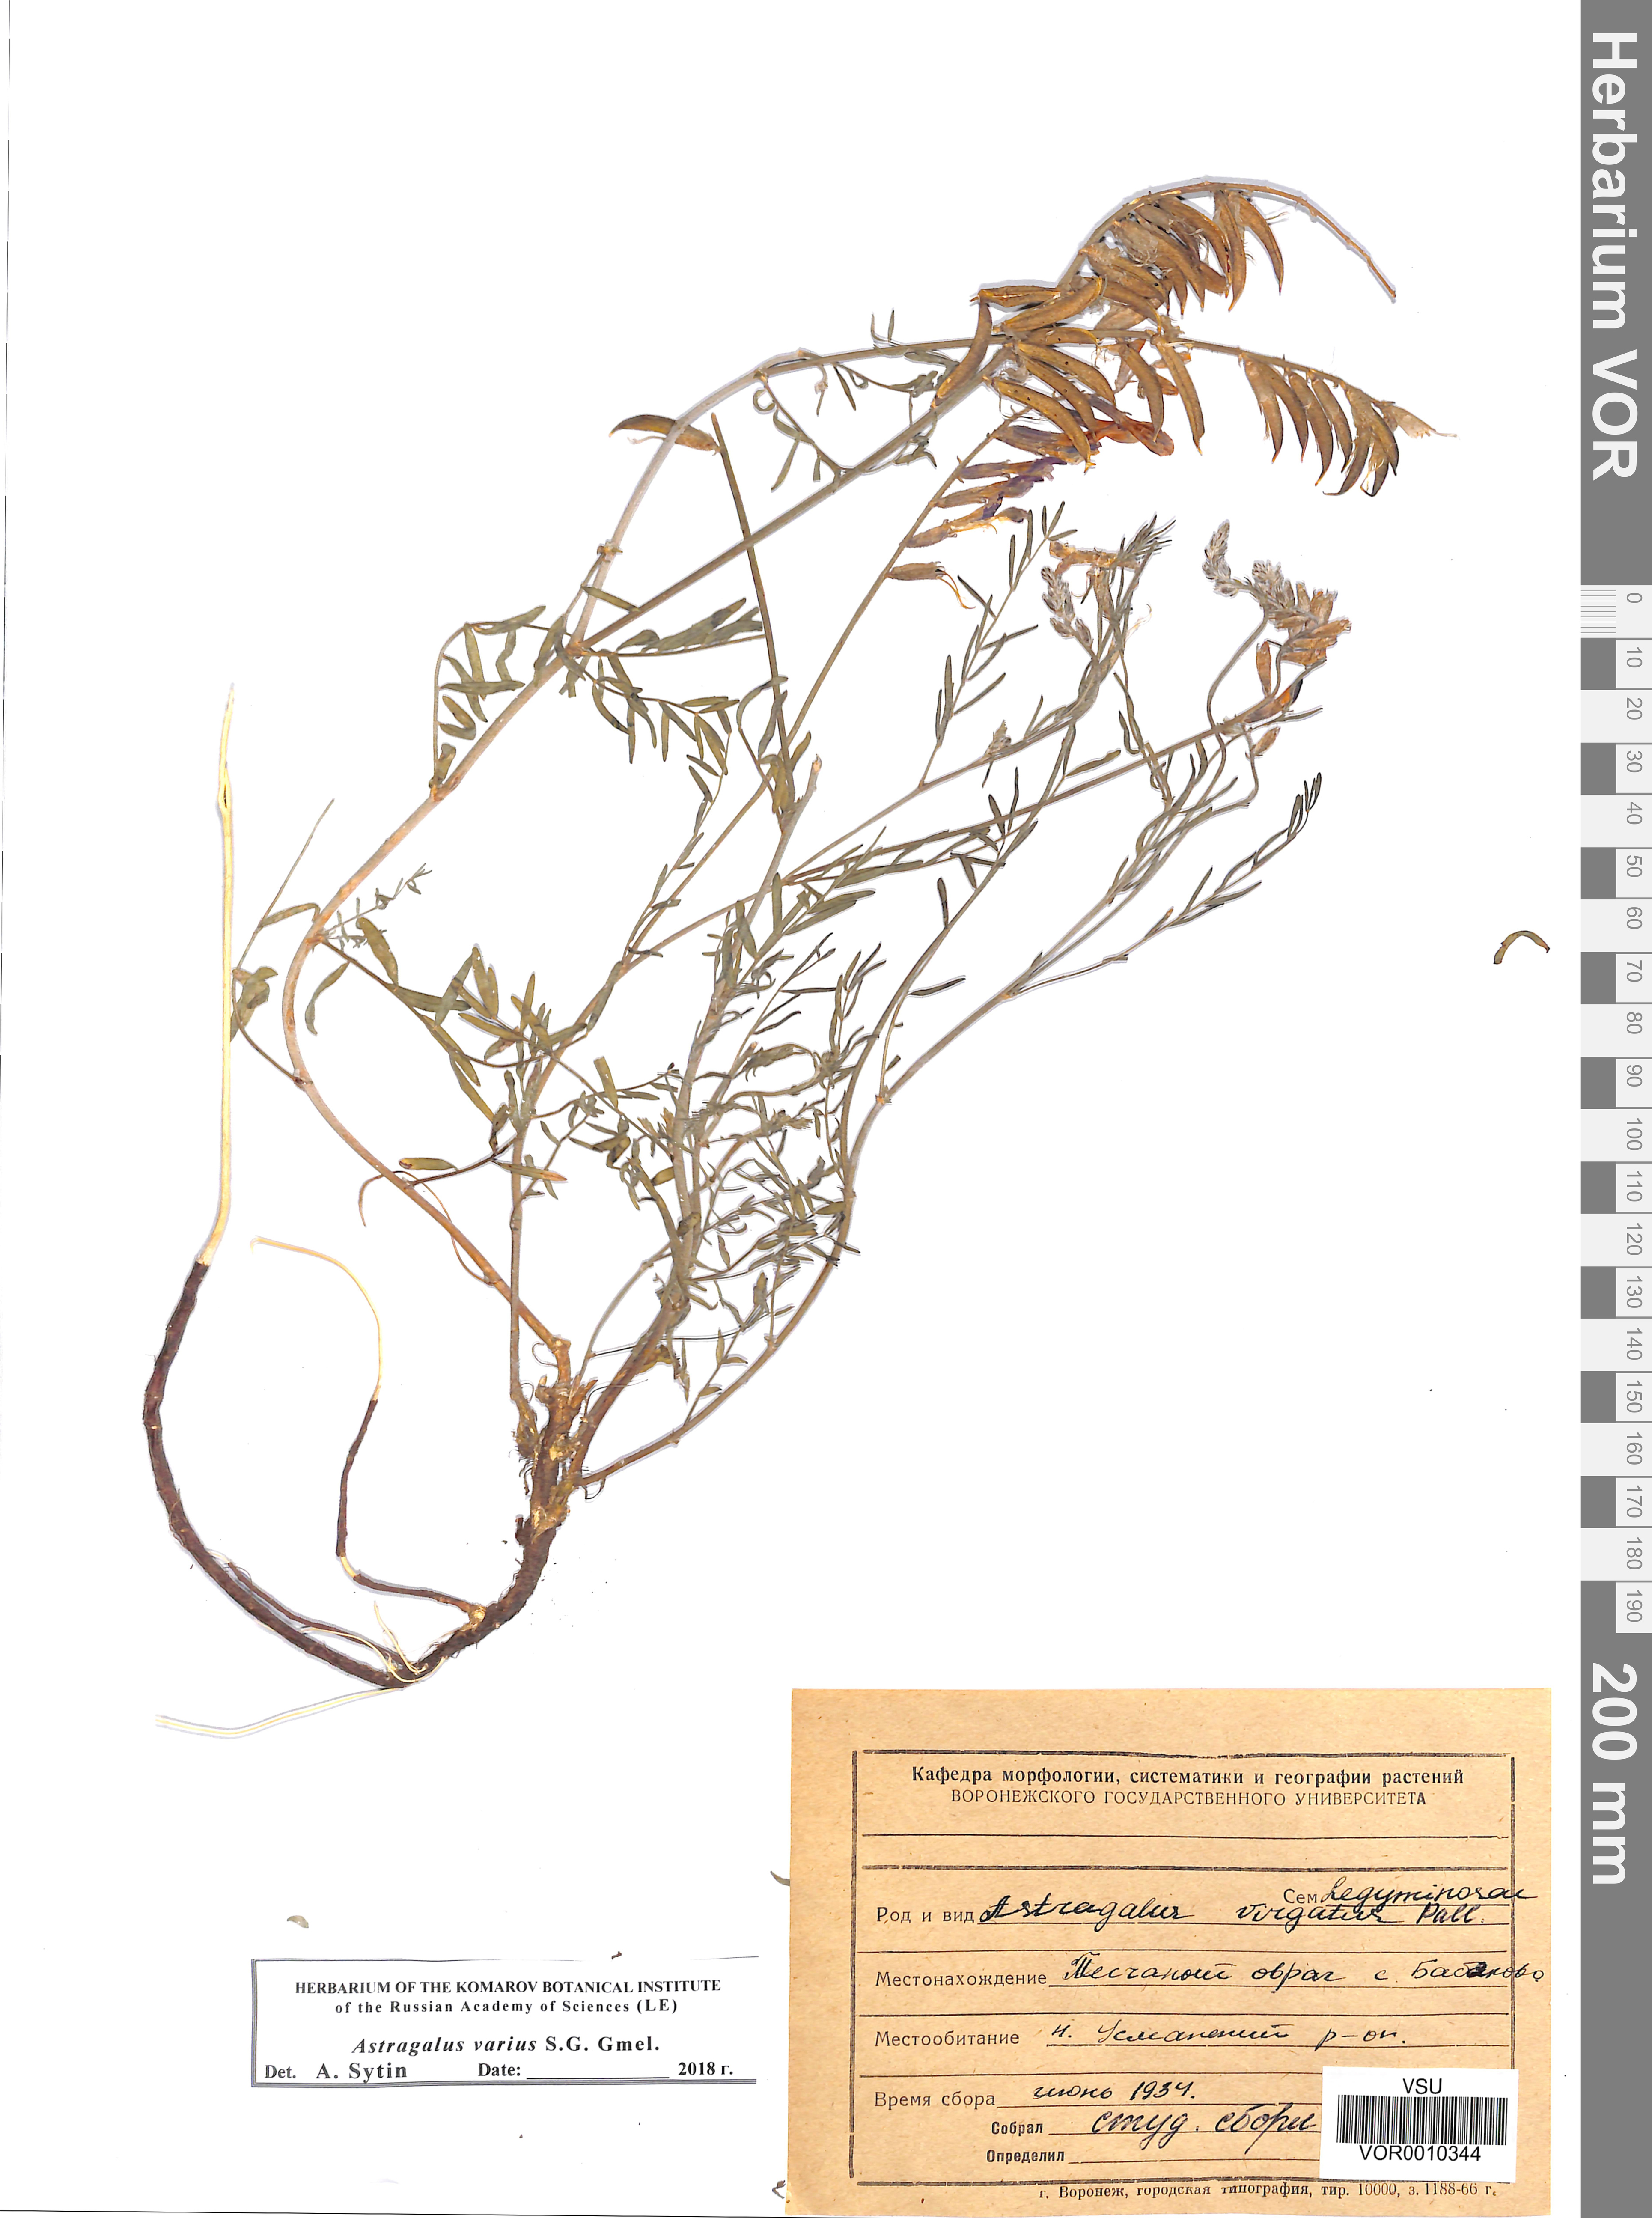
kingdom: Plantae
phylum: Tracheophyta
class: Magnoliopsida
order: Fabales
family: Fabaceae
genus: Astragalus
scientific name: Astragalus varius
